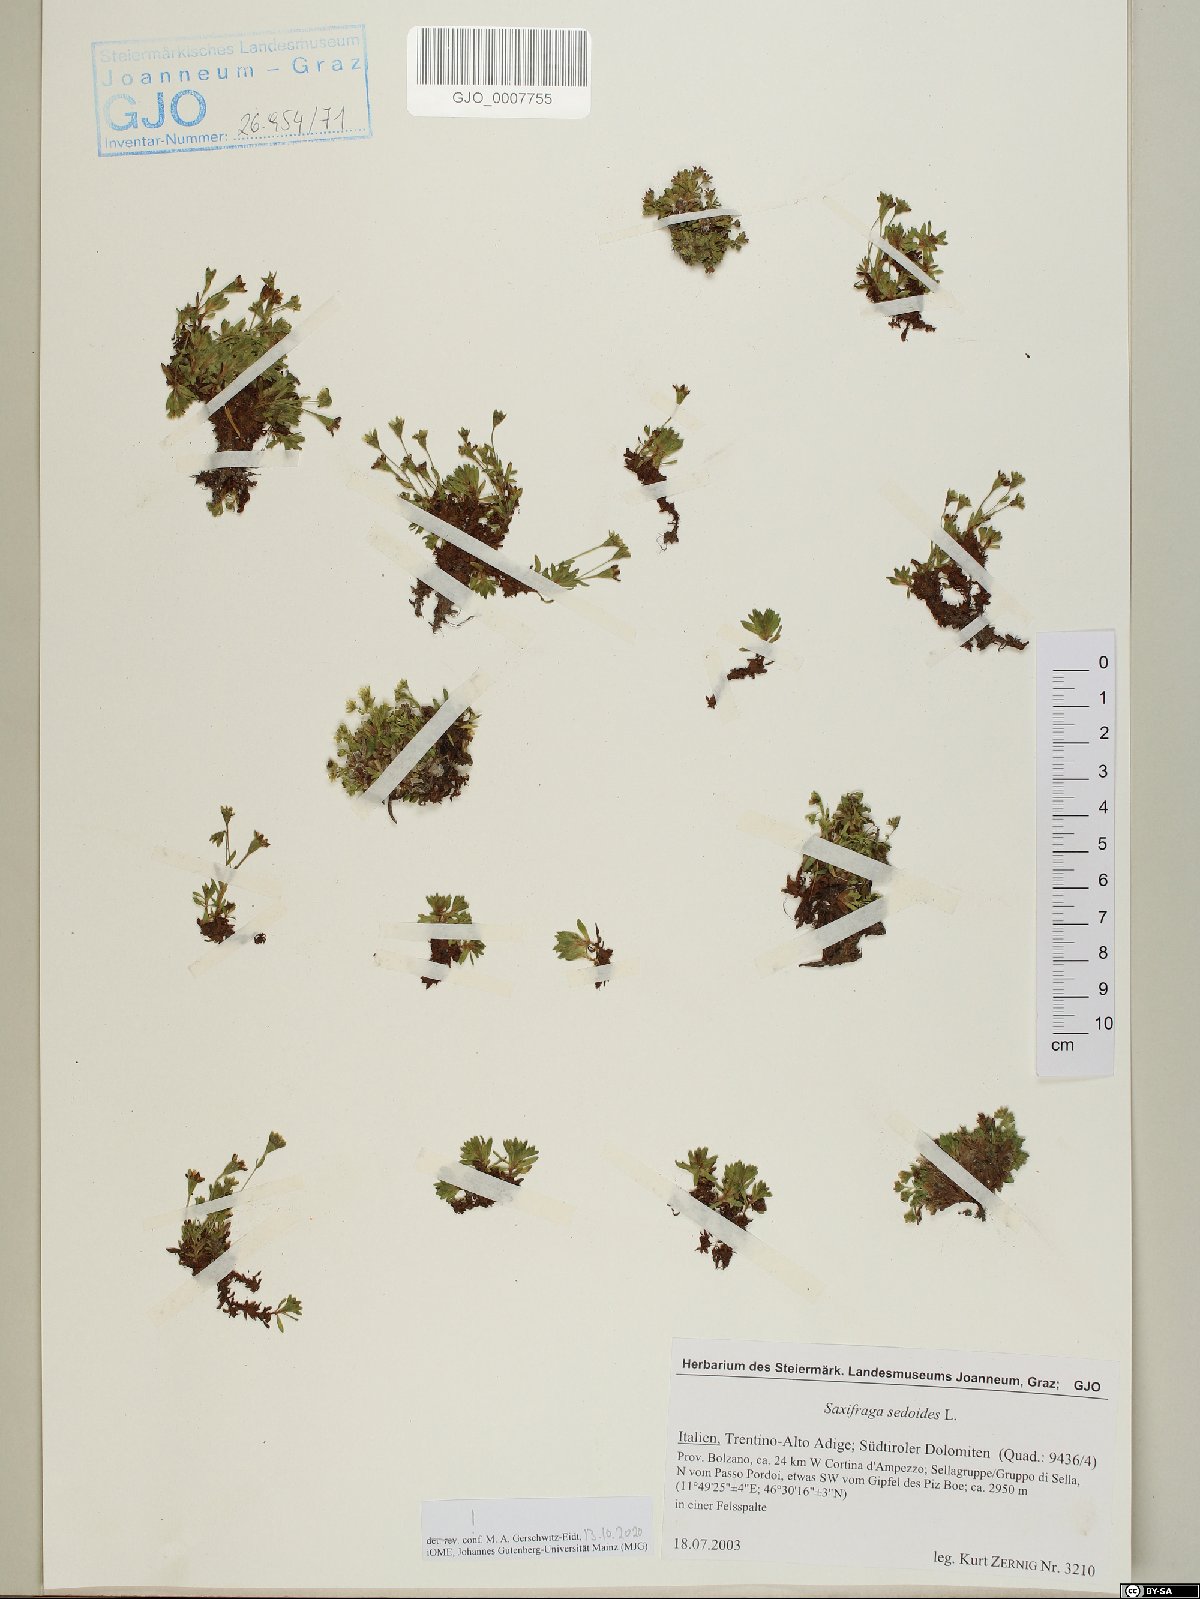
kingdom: Plantae
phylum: Tracheophyta
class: Magnoliopsida
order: Saxifragales
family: Saxifragaceae
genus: Saxifraga
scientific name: Saxifraga sedoides
